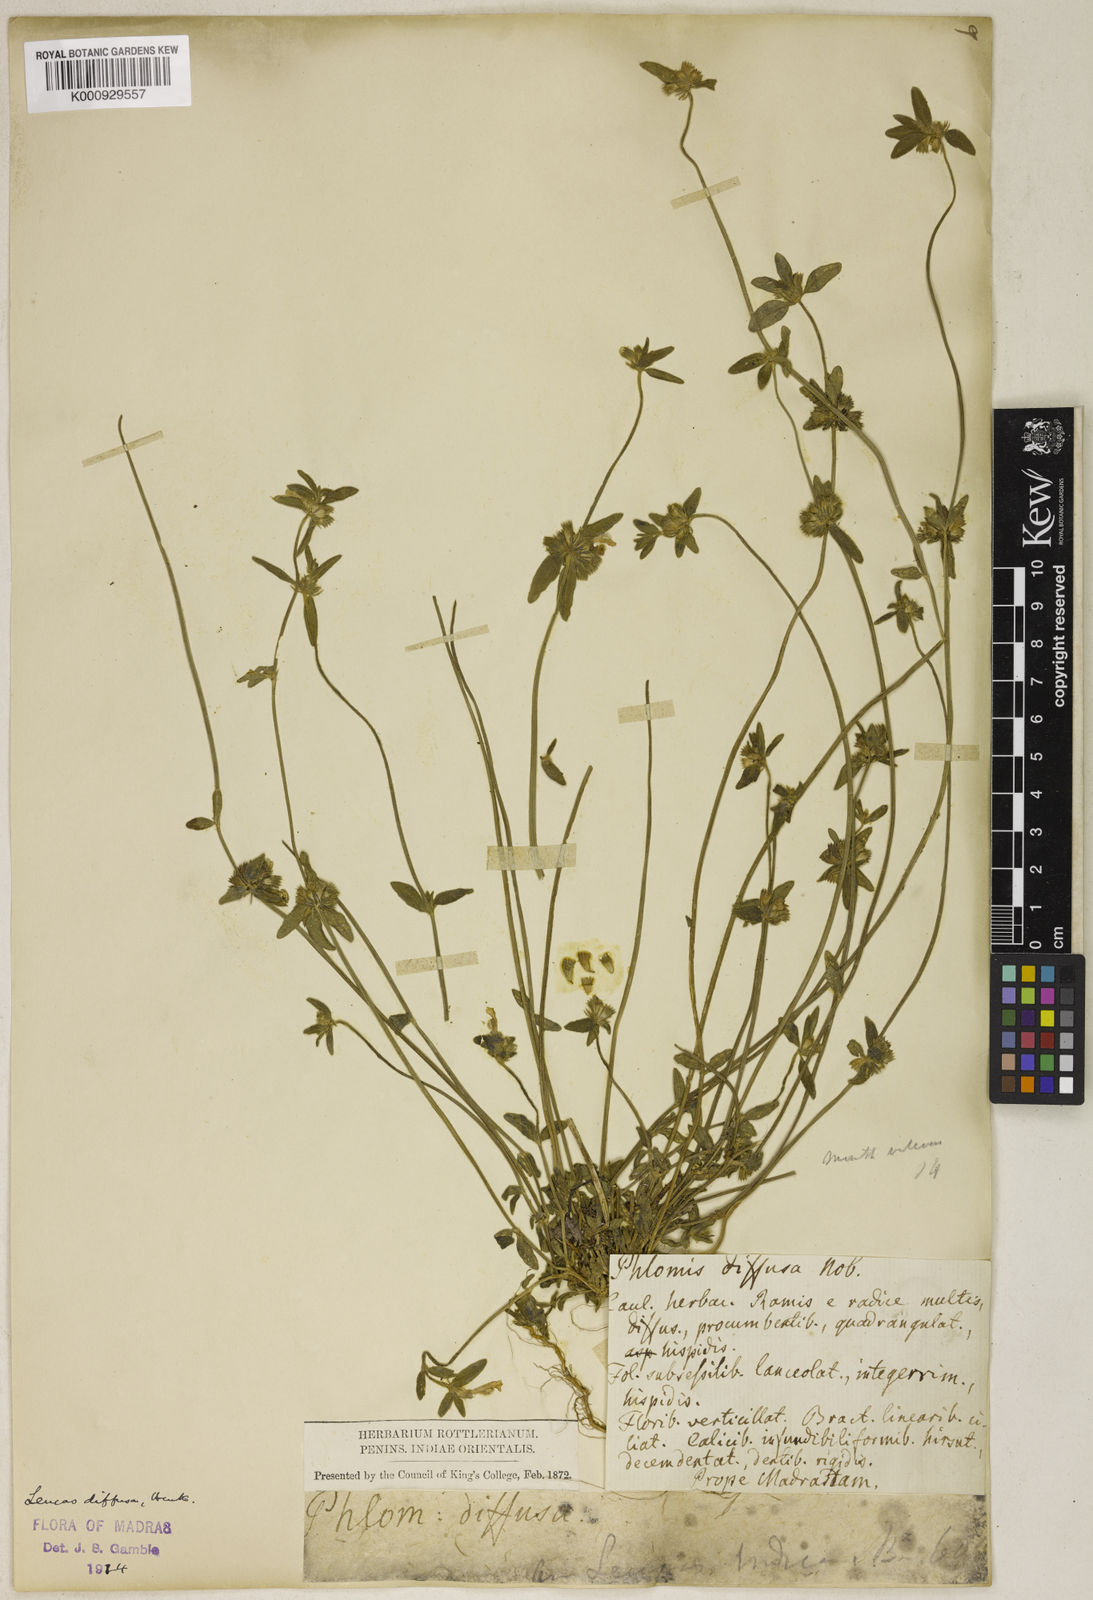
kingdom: Plantae
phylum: Tracheophyta
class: Magnoliopsida
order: Lamiales
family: Lamiaceae
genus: Leucas
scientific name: Leucas diffusa
